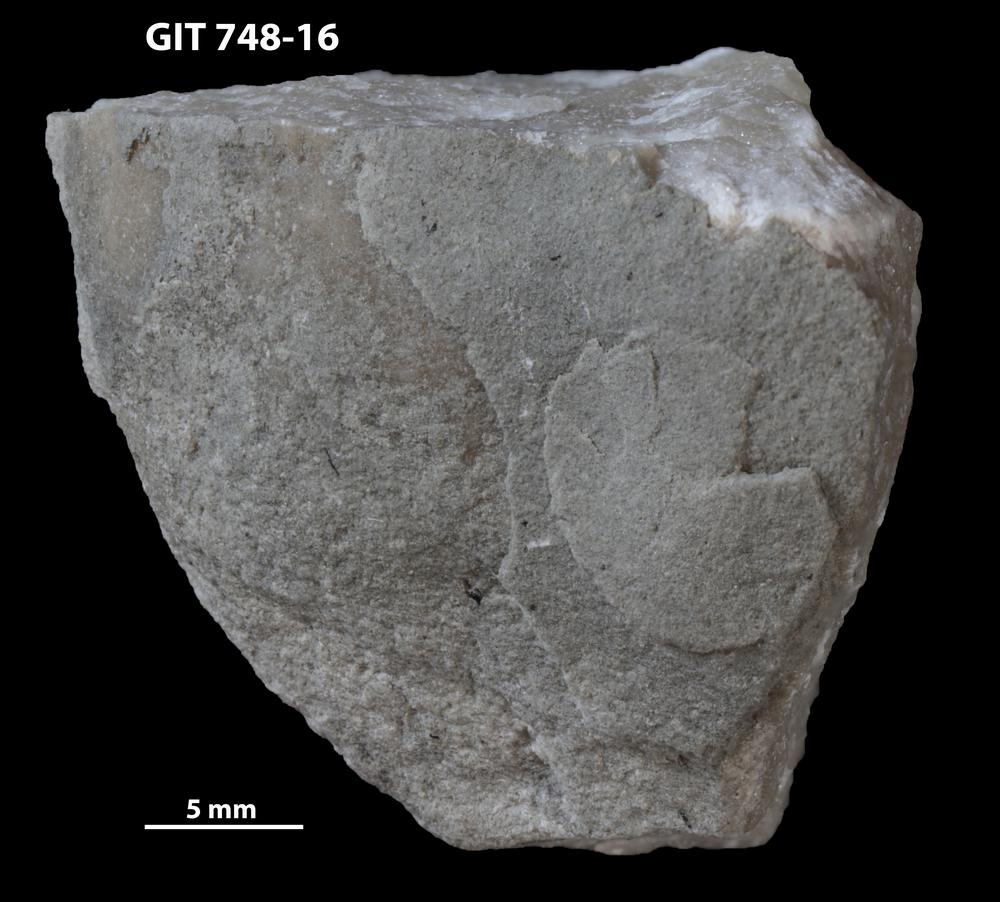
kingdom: Animalia
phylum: Porifera
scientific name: Porifera
